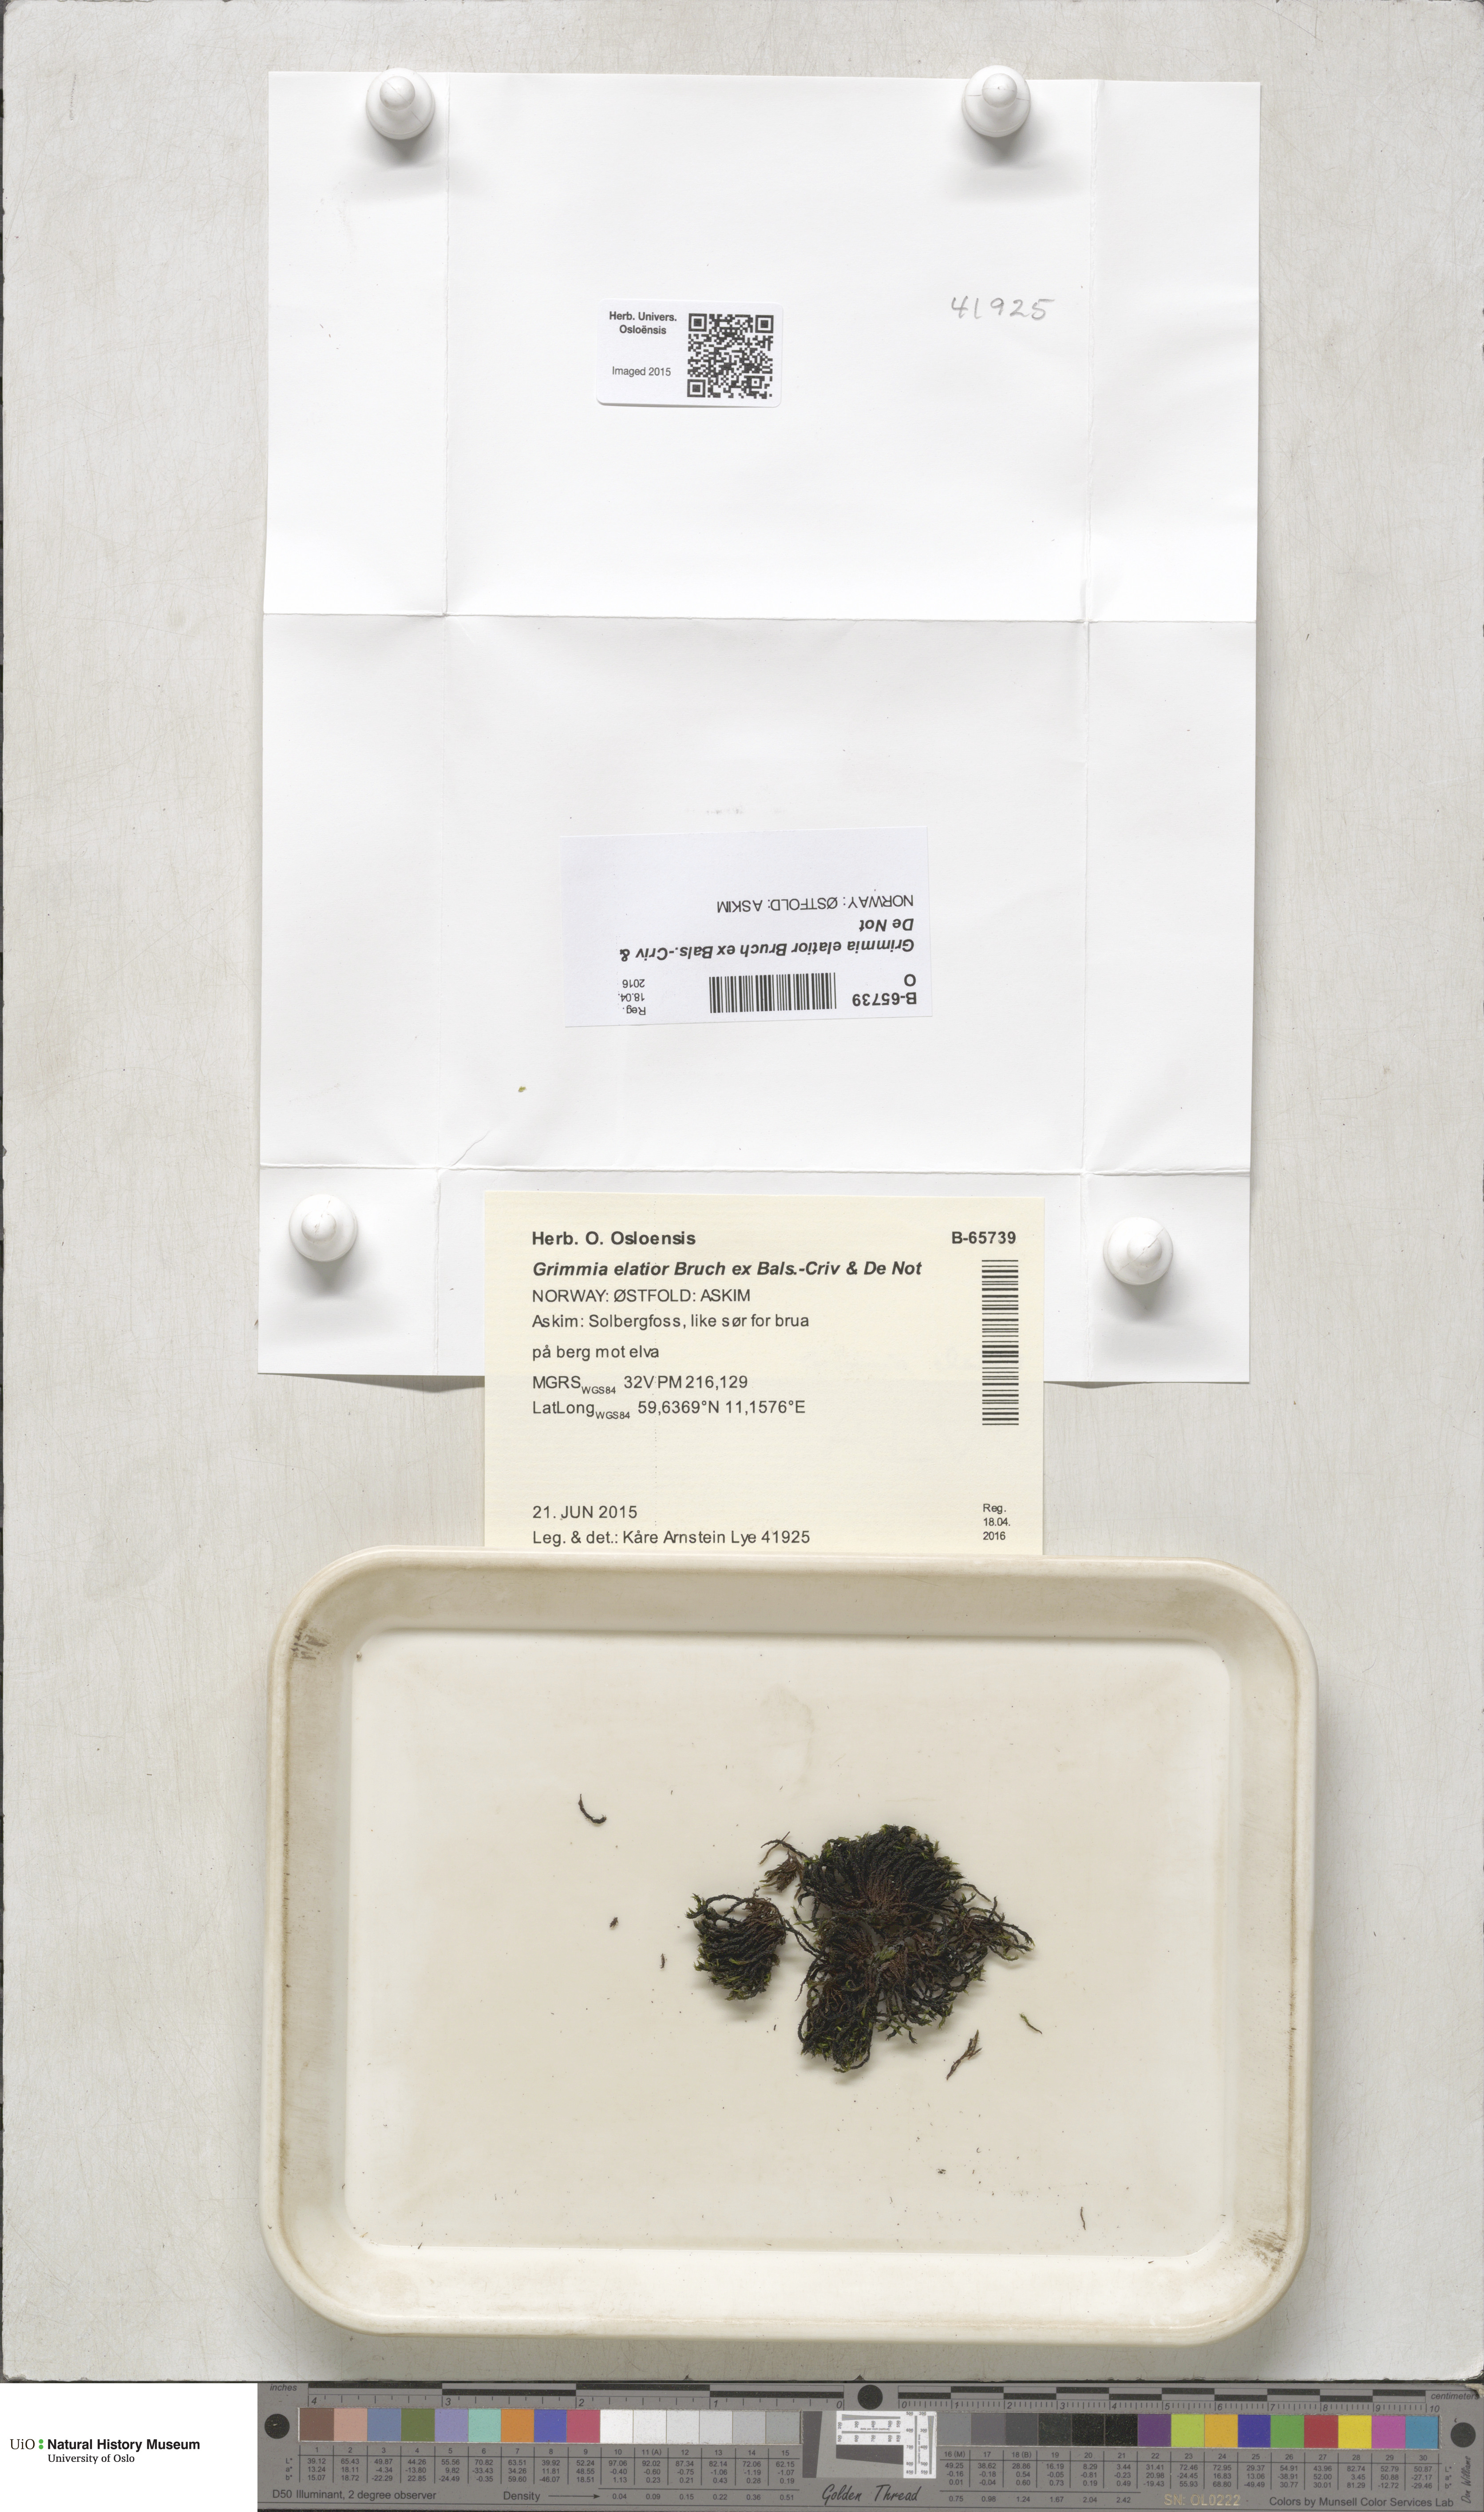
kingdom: Plantae
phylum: Bryophyta
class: Bryopsida
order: Grimmiales
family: Grimmiaceae
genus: Grimmia
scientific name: Grimmia elatior
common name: Large grimmia
